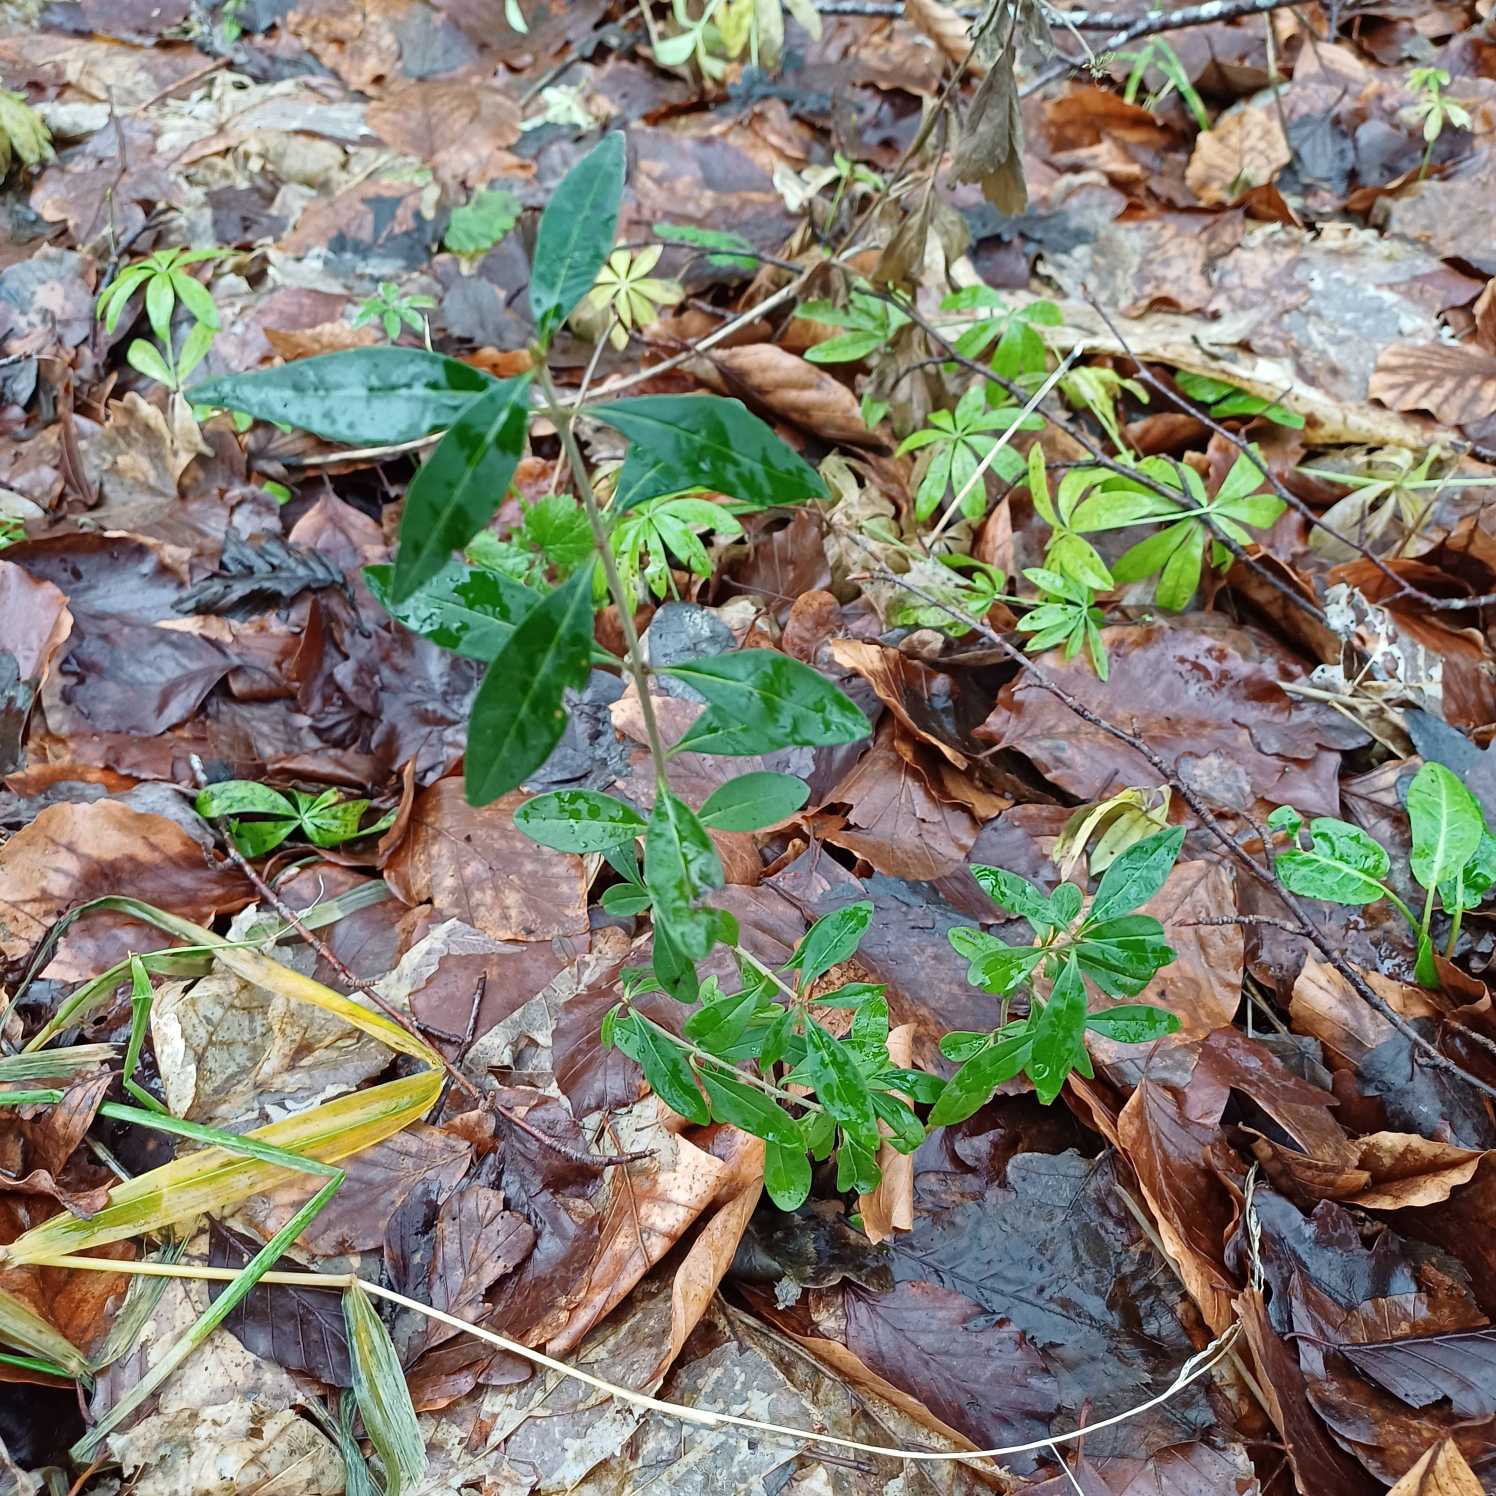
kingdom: Plantae
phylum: Tracheophyta
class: Magnoliopsida
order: Lamiales
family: Oleaceae
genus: Ligustrum
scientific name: Ligustrum vulgare
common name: Liguster
